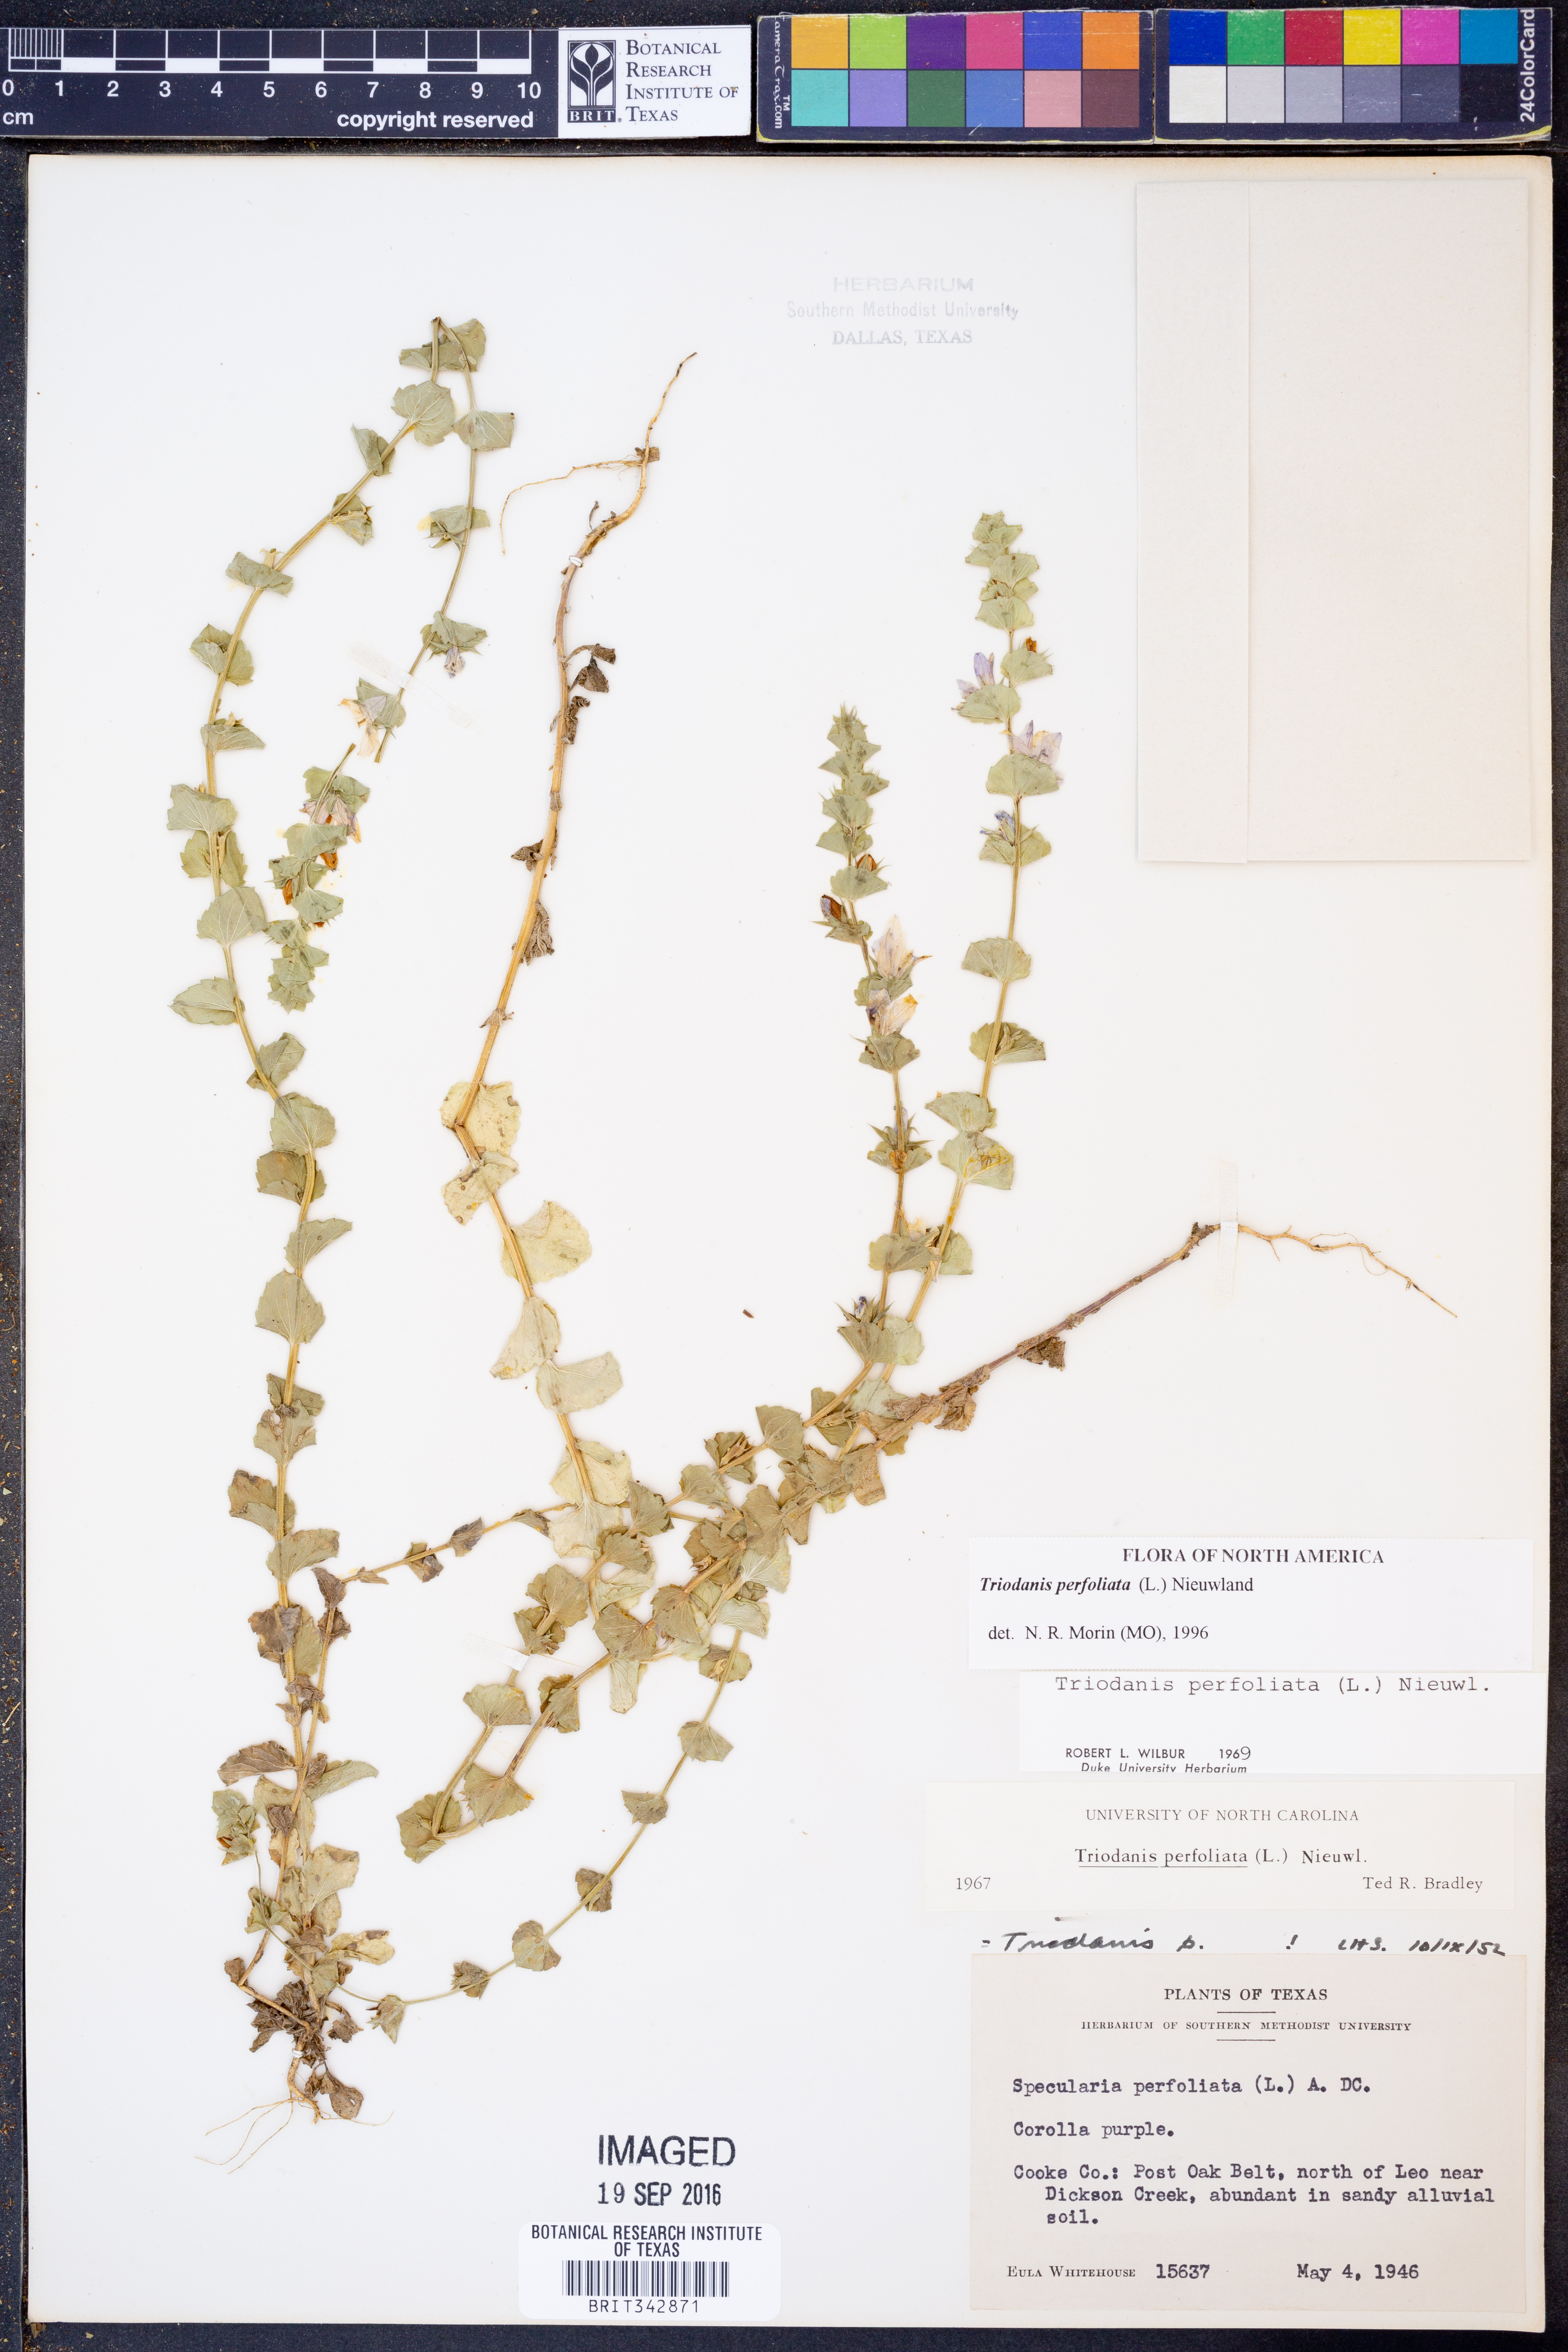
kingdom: Plantae
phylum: Tracheophyta
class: Magnoliopsida
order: Asterales
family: Campanulaceae
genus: Triodanis
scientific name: Triodanis perfoliata
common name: Clasping venus' looking-glass
